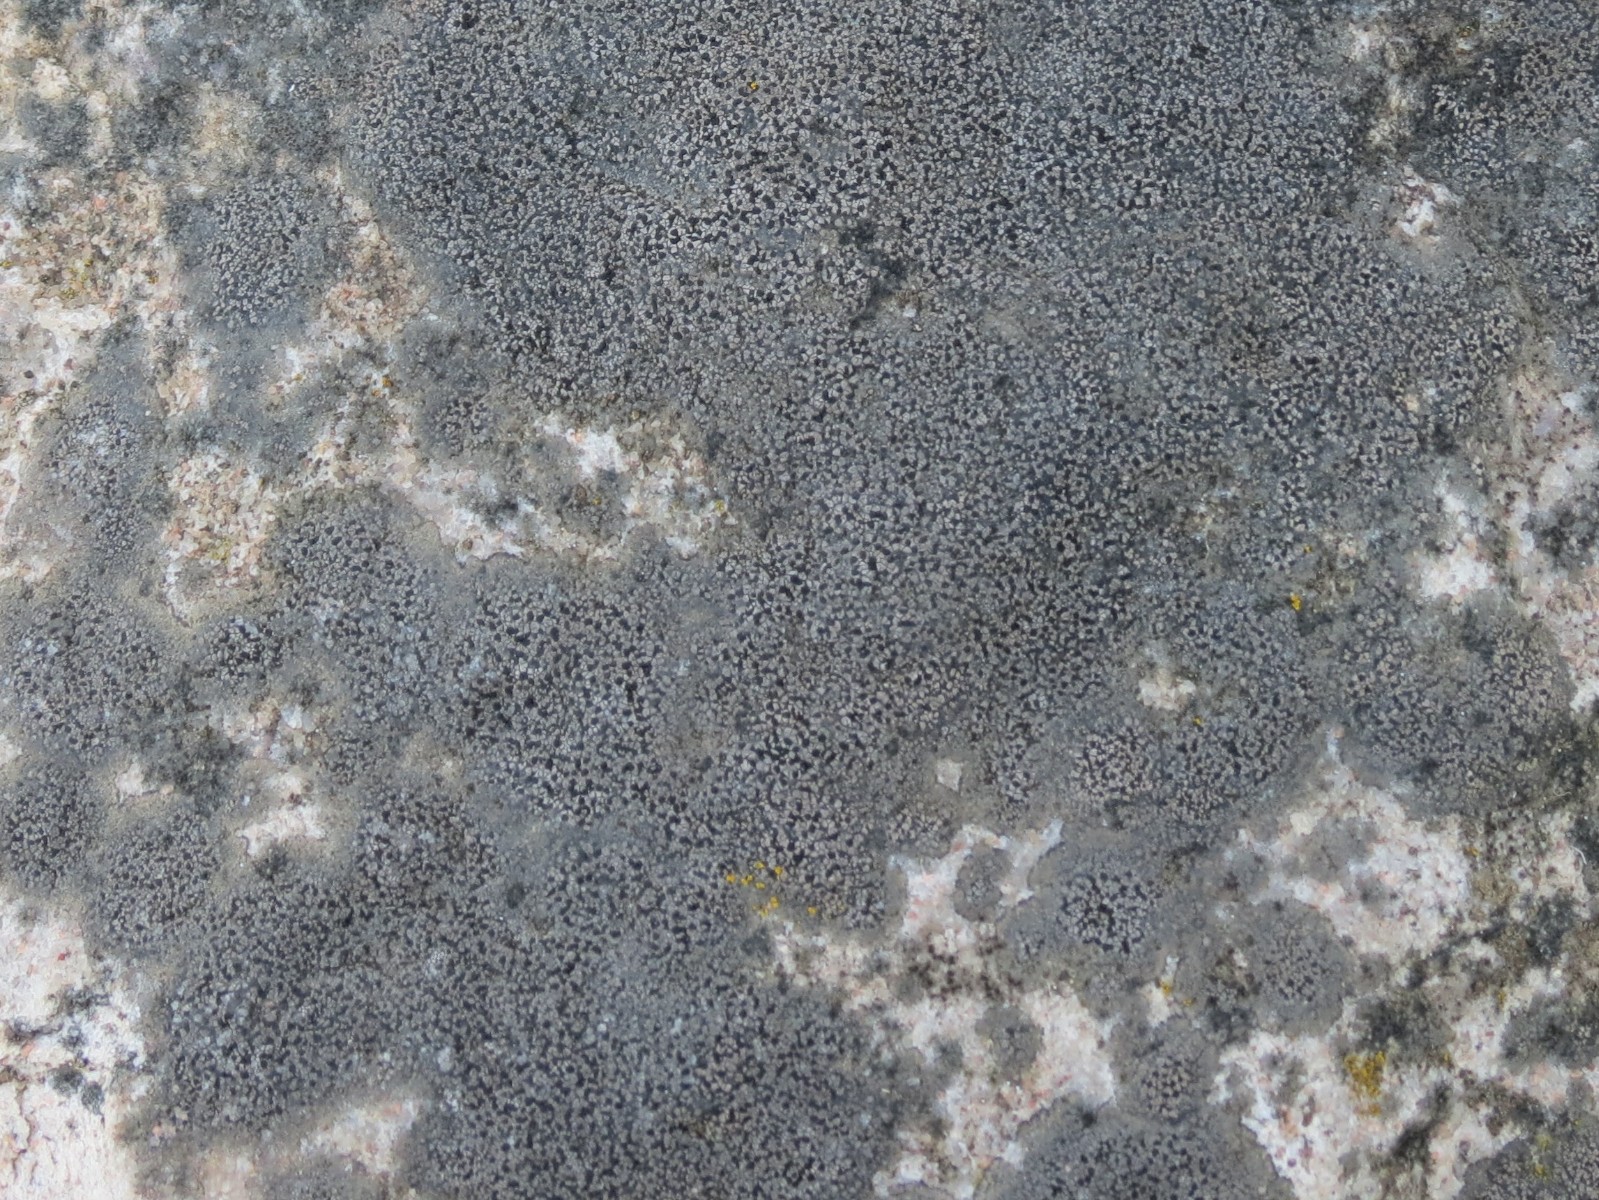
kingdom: Fungi
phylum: Ascomycota
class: Lecanoromycetes
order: Rhizocarpales
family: Rhizocarpaceae
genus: Rhizocarpon
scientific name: Rhizocarpon reductum
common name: mørk landkortlav
